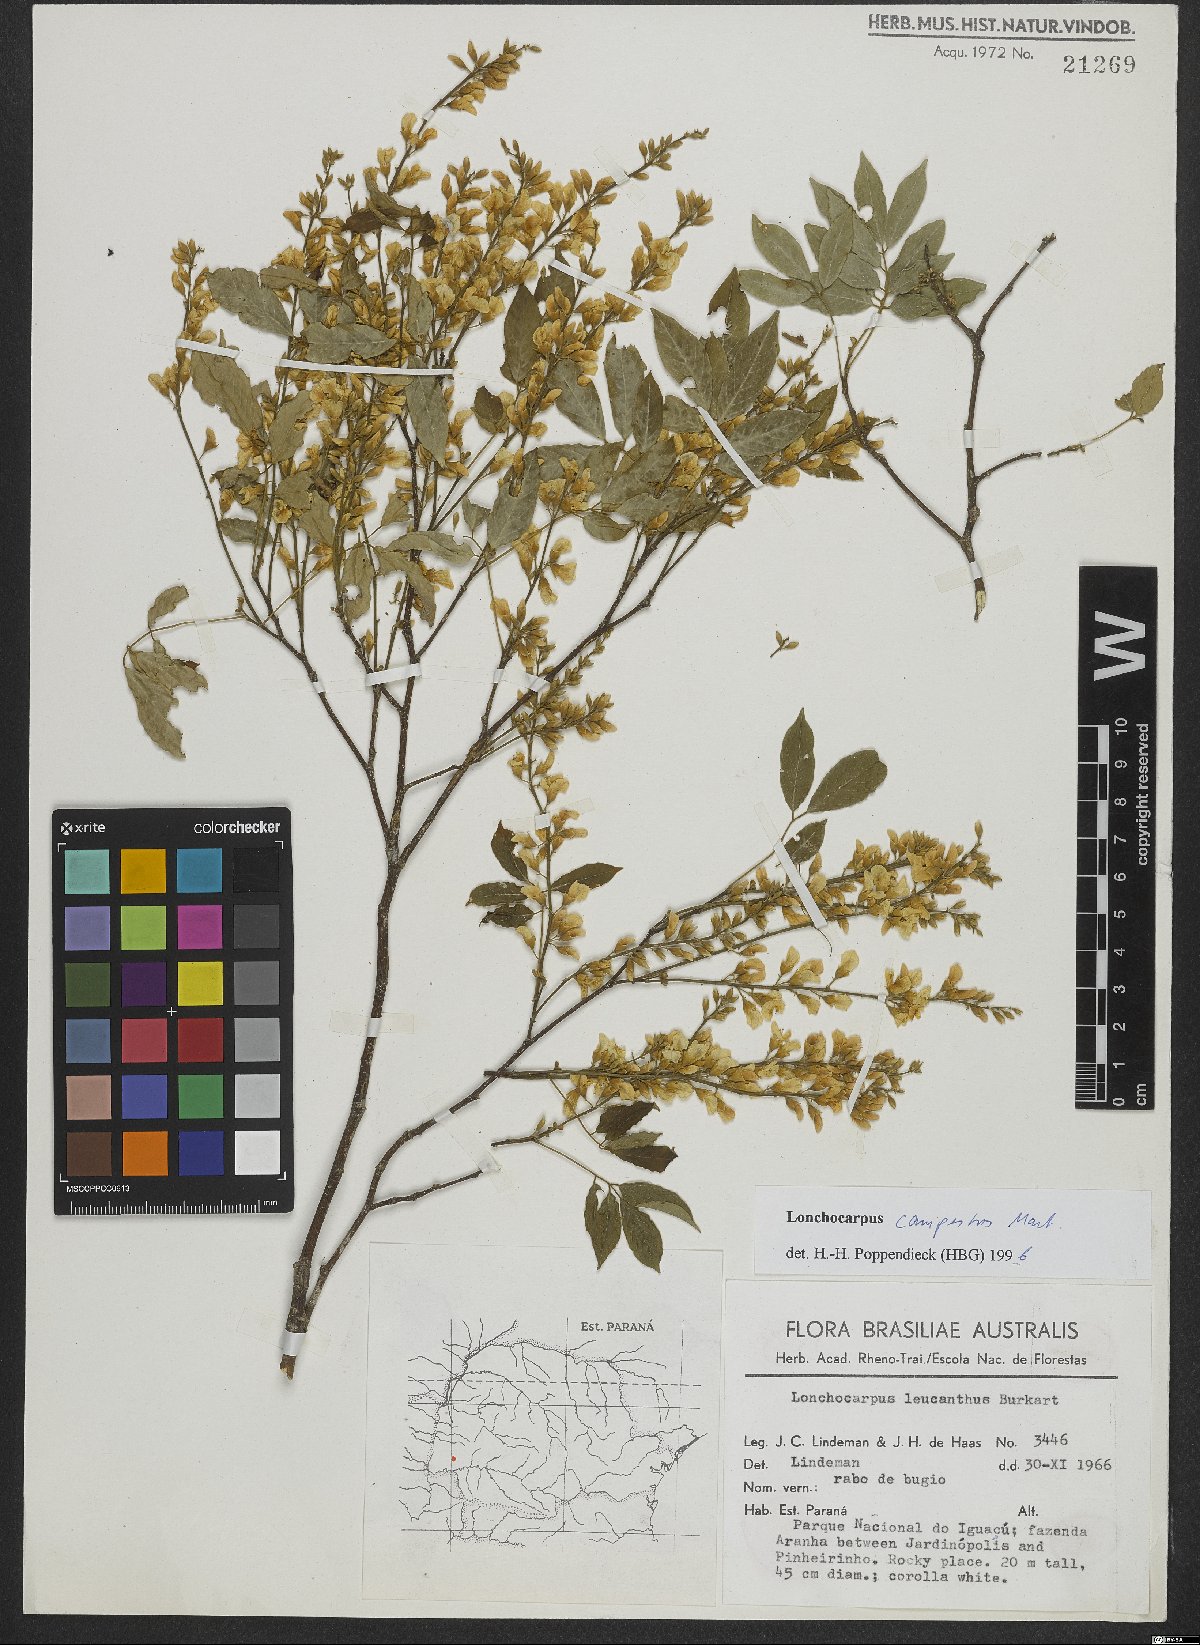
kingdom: Plantae
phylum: Tracheophyta
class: Magnoliopsida
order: Fabales
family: Fabaceae
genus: Muellera
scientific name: Muellera campestris
